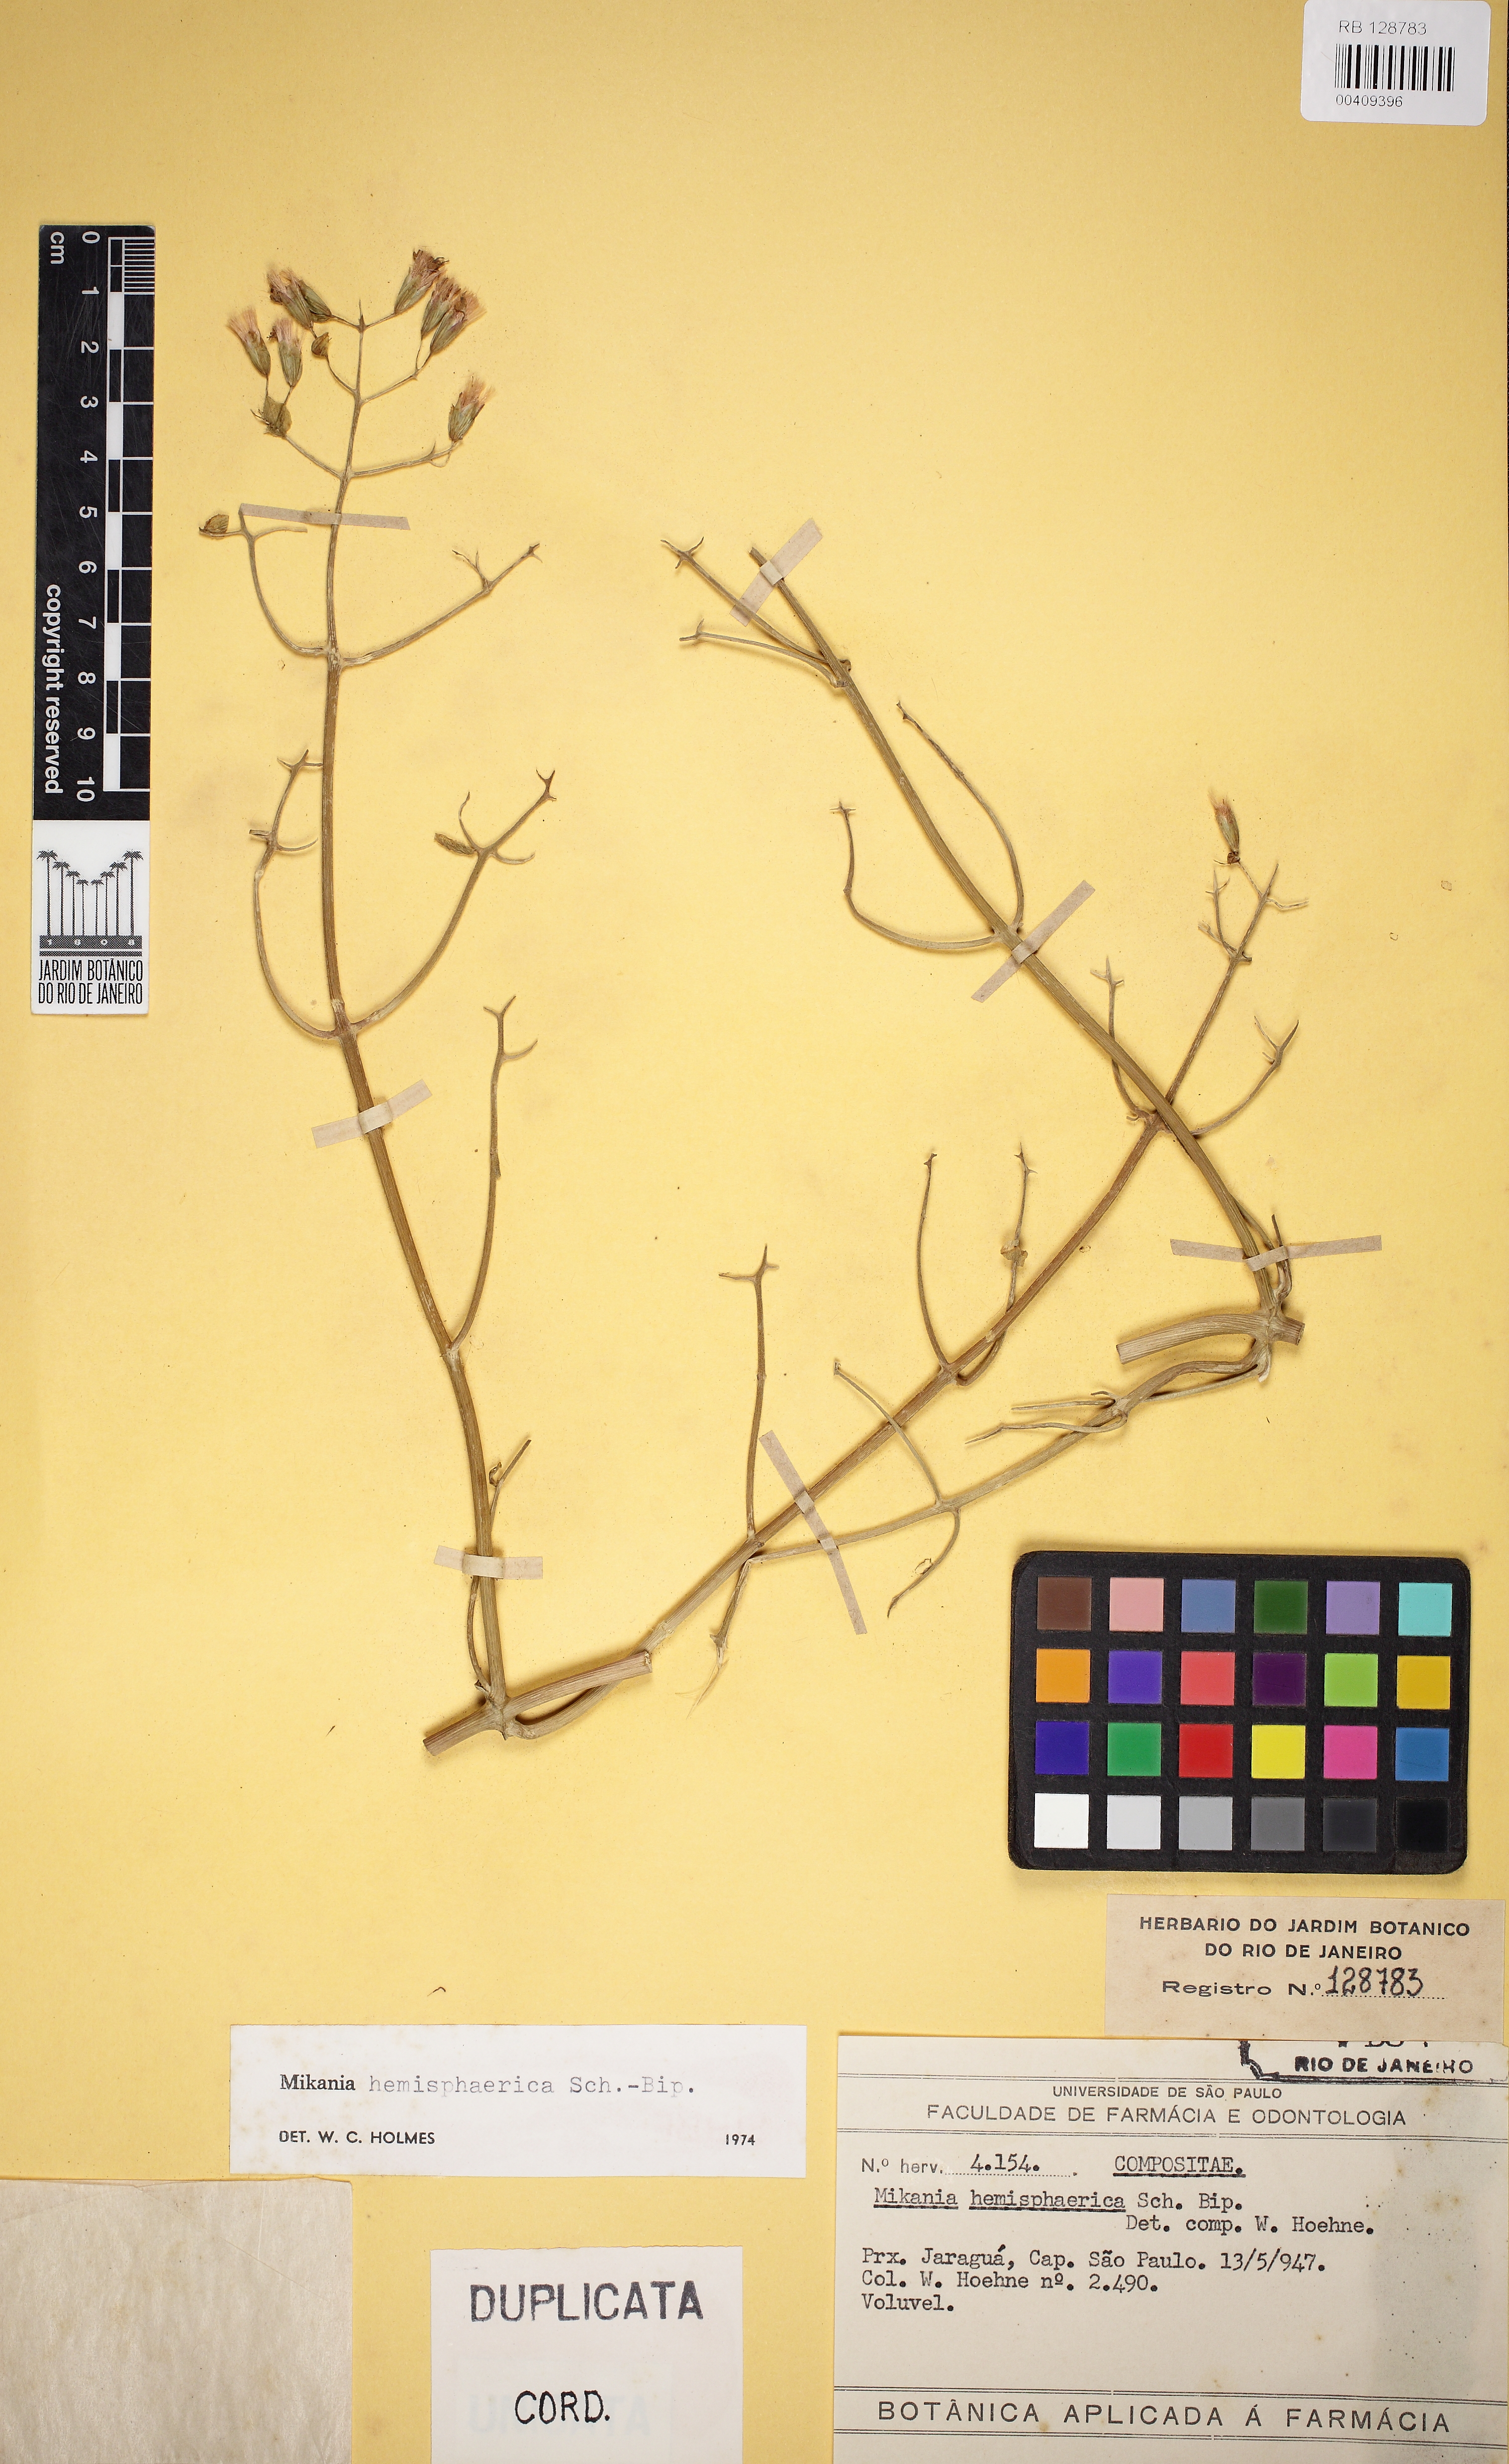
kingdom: Plantae
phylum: Tracheophyta
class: Magnoliopsida
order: Asterales
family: Asteraceae
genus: Mikania
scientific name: Mikania hemisphaerica
